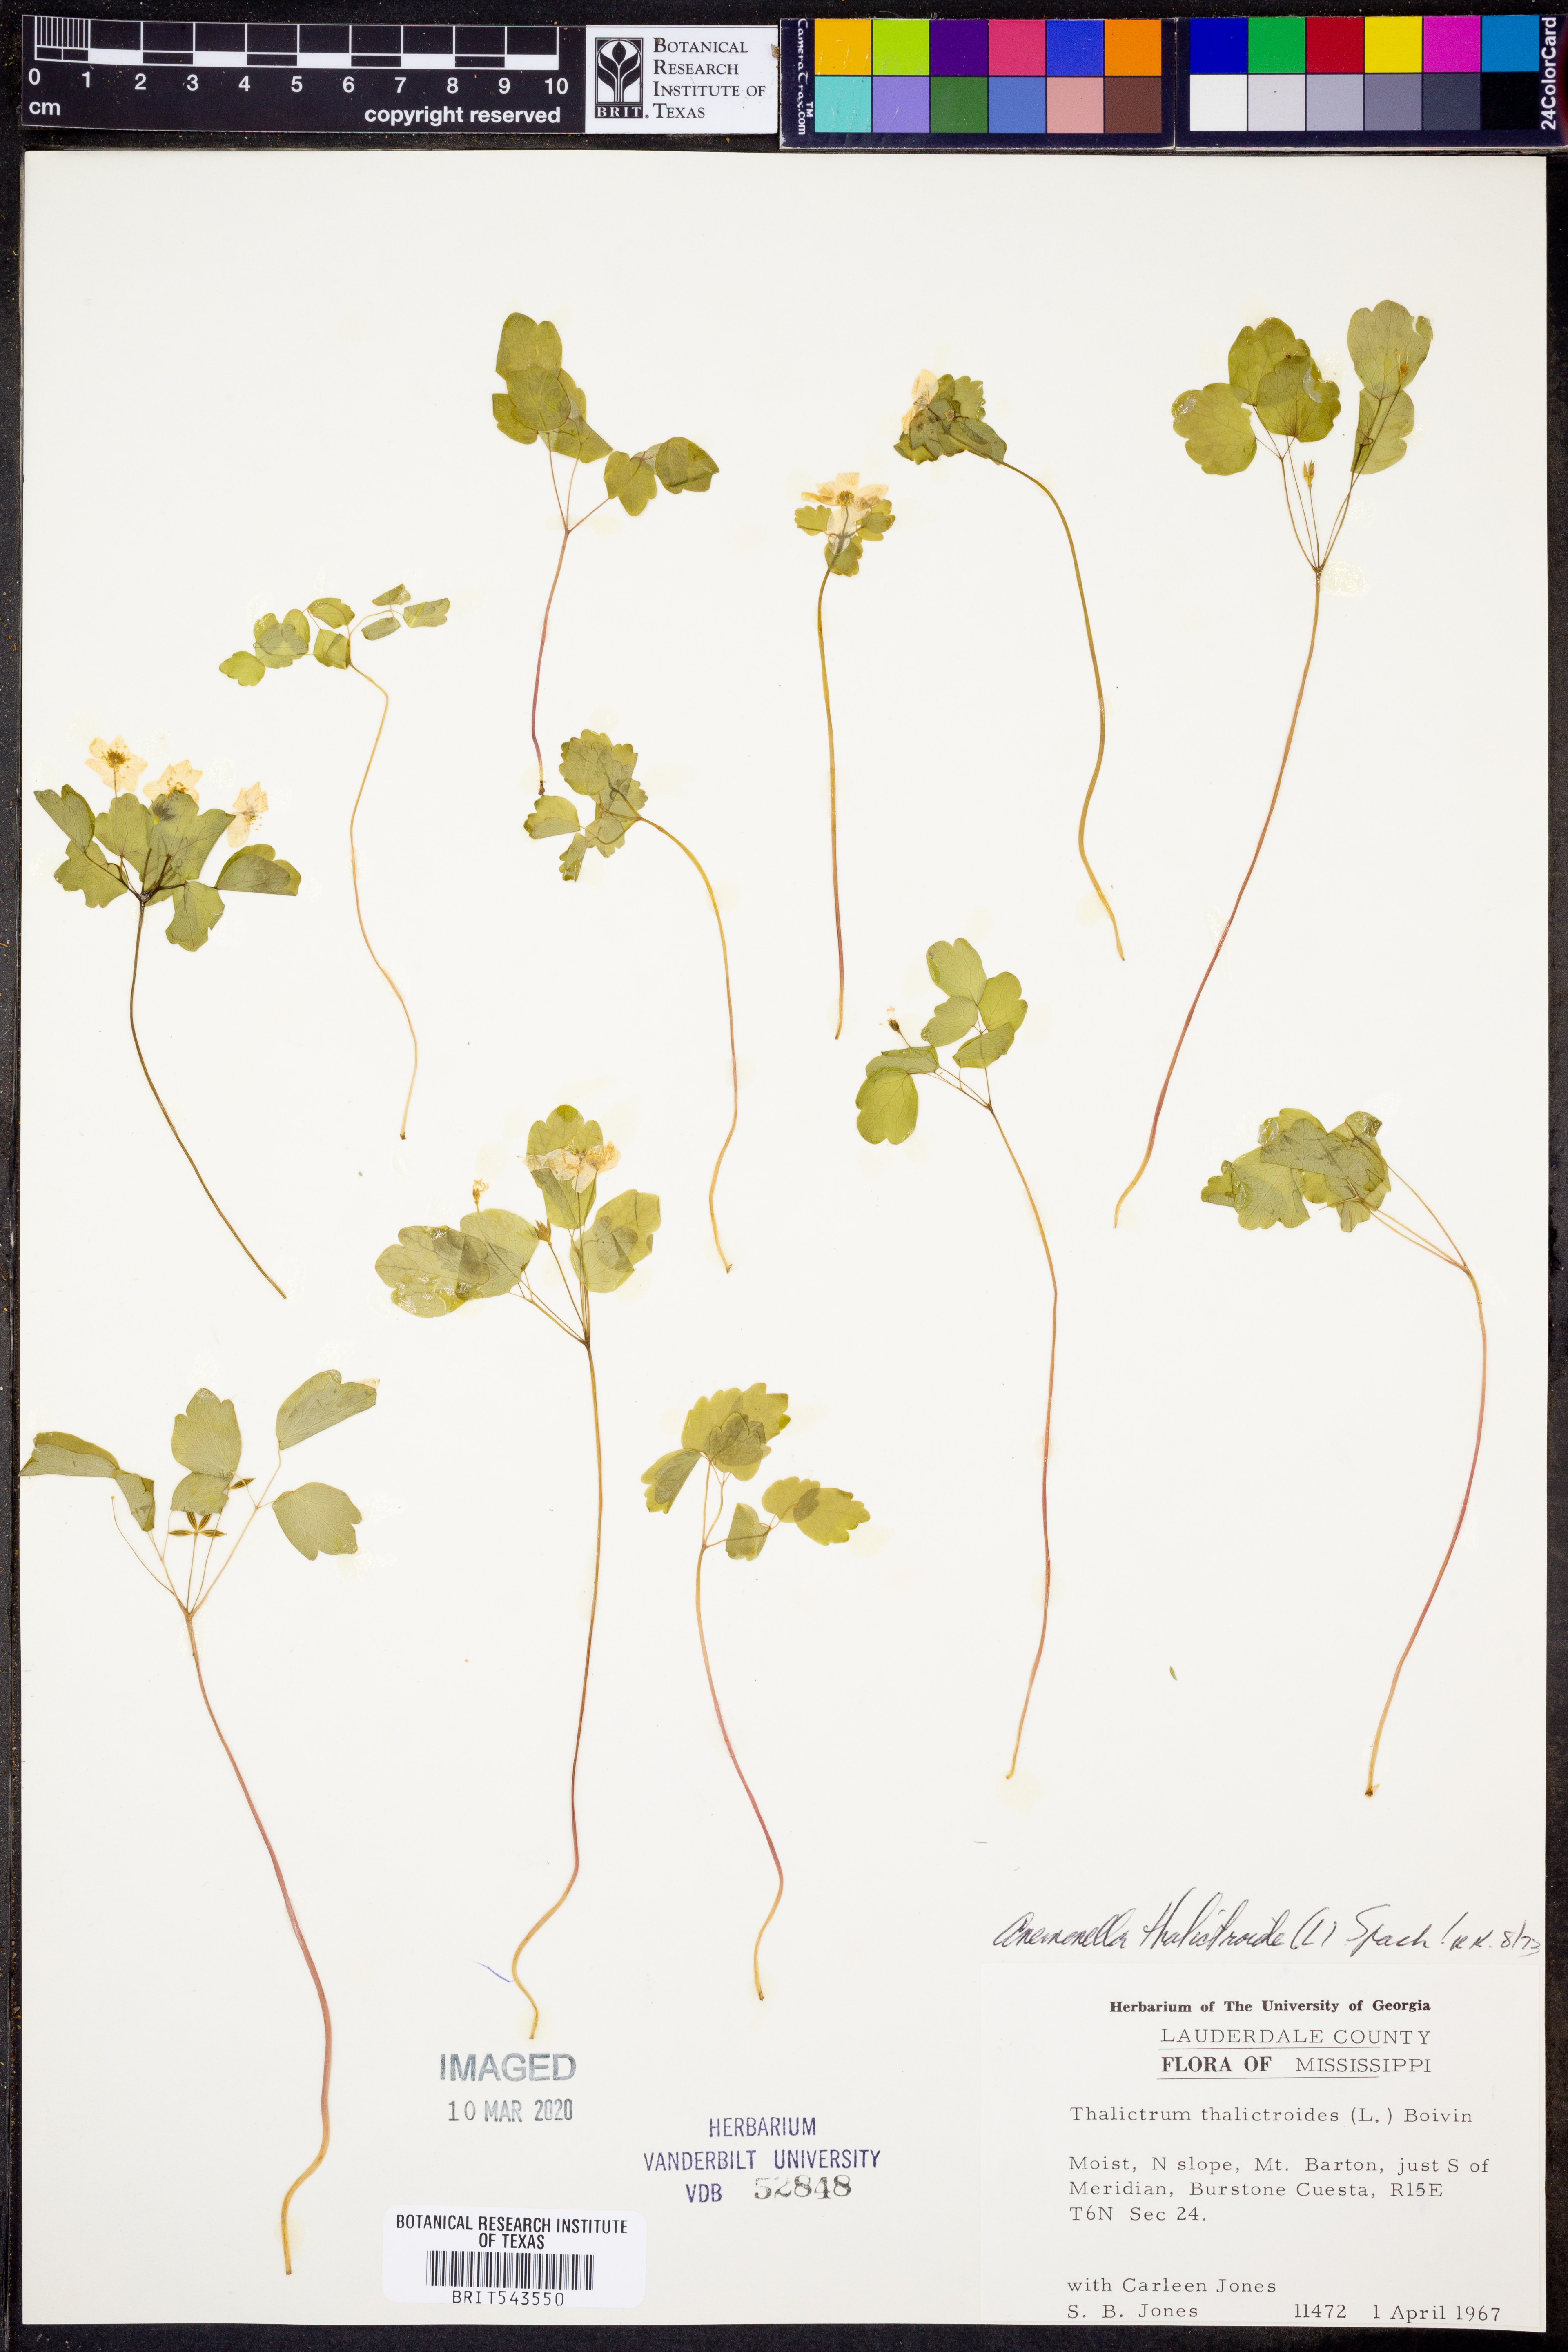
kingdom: Plantae
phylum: Tracheophyta
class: Magnoliopsida
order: Ranunculales
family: Ranunculaceae
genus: Thalictrum
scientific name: Thalictrum thalictroides
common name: Rue-anemone
